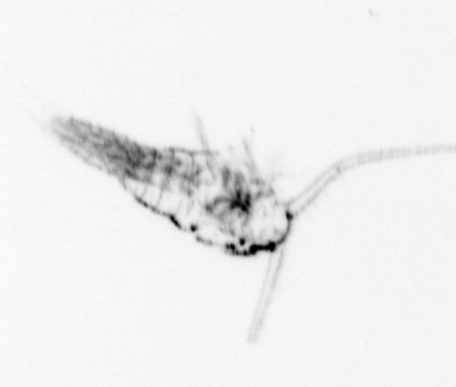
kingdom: Animalia
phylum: Arthropoda
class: Copepoda
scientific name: Copepoda
